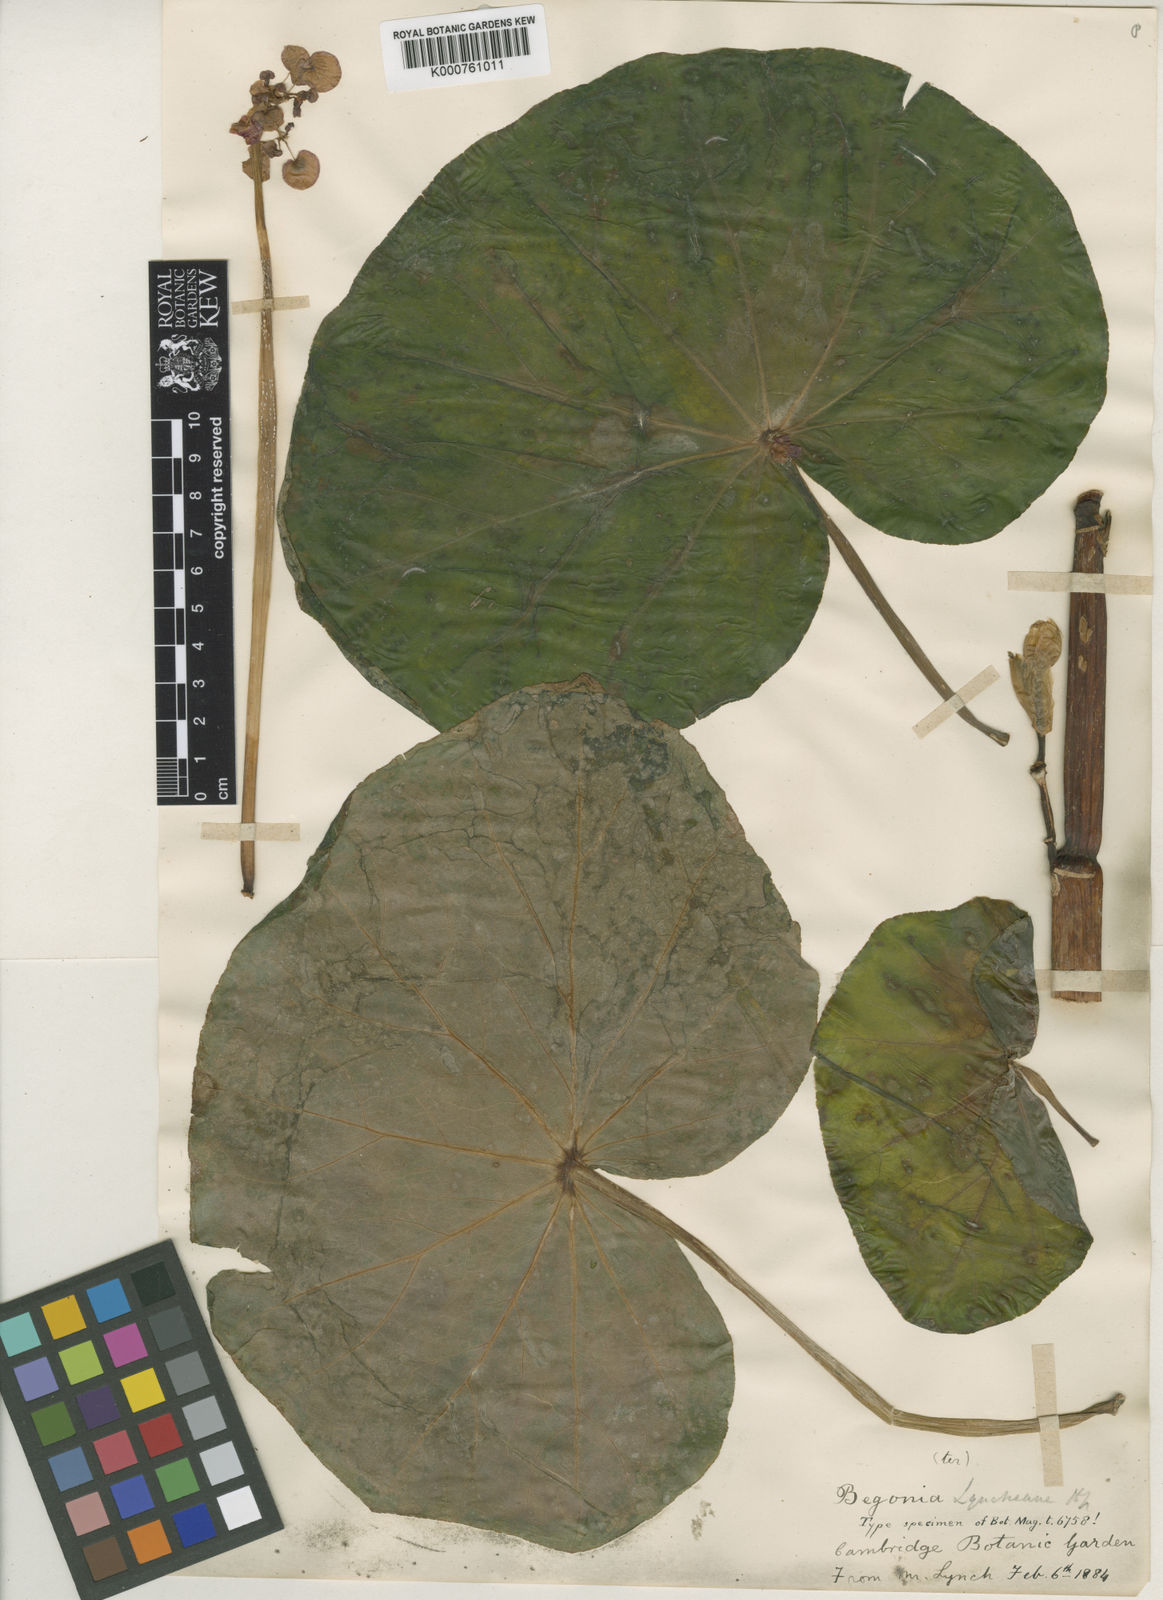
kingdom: Plantae
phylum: Tracheophyta
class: Magnoliopsida
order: Cucurbitales
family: Begoniaceae
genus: Begonia
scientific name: Begonia
